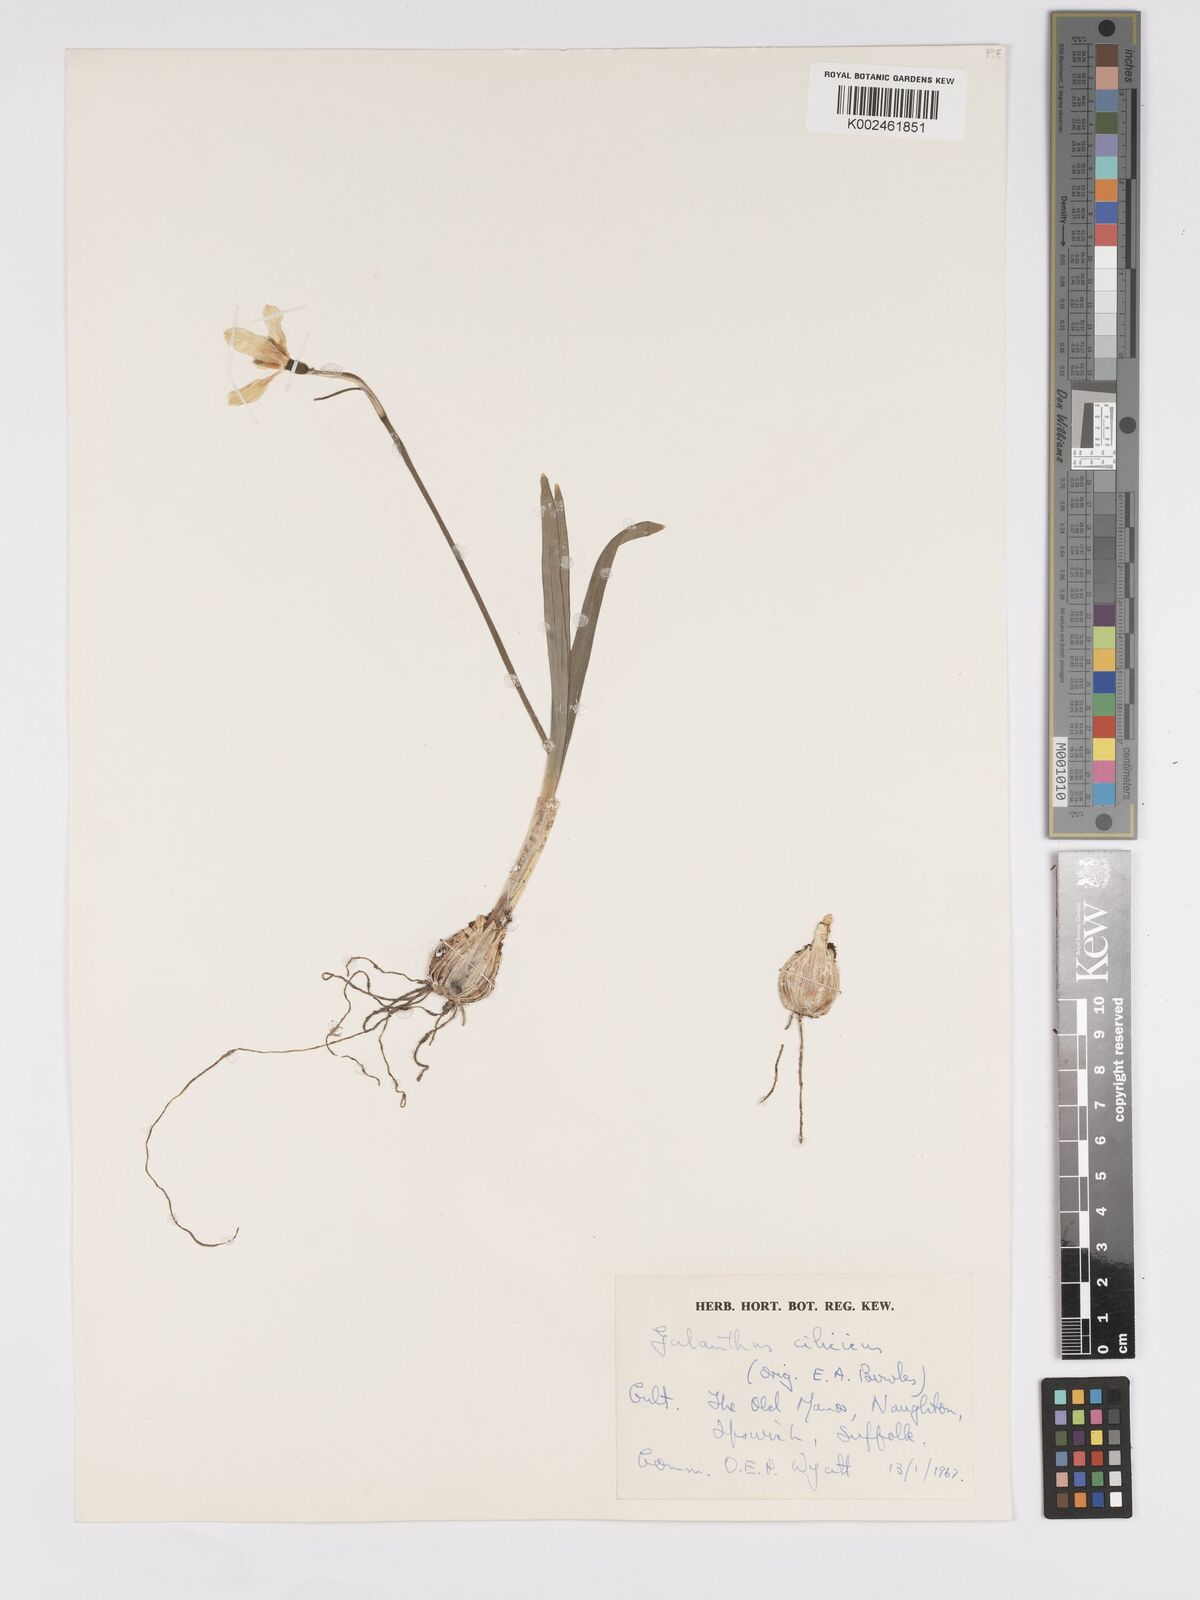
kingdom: Plantae
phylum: Tracheophyta
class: Liliopsida
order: Asparagales
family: Amaryllidaceae
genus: Galanthus
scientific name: Galanthus cilicicus
